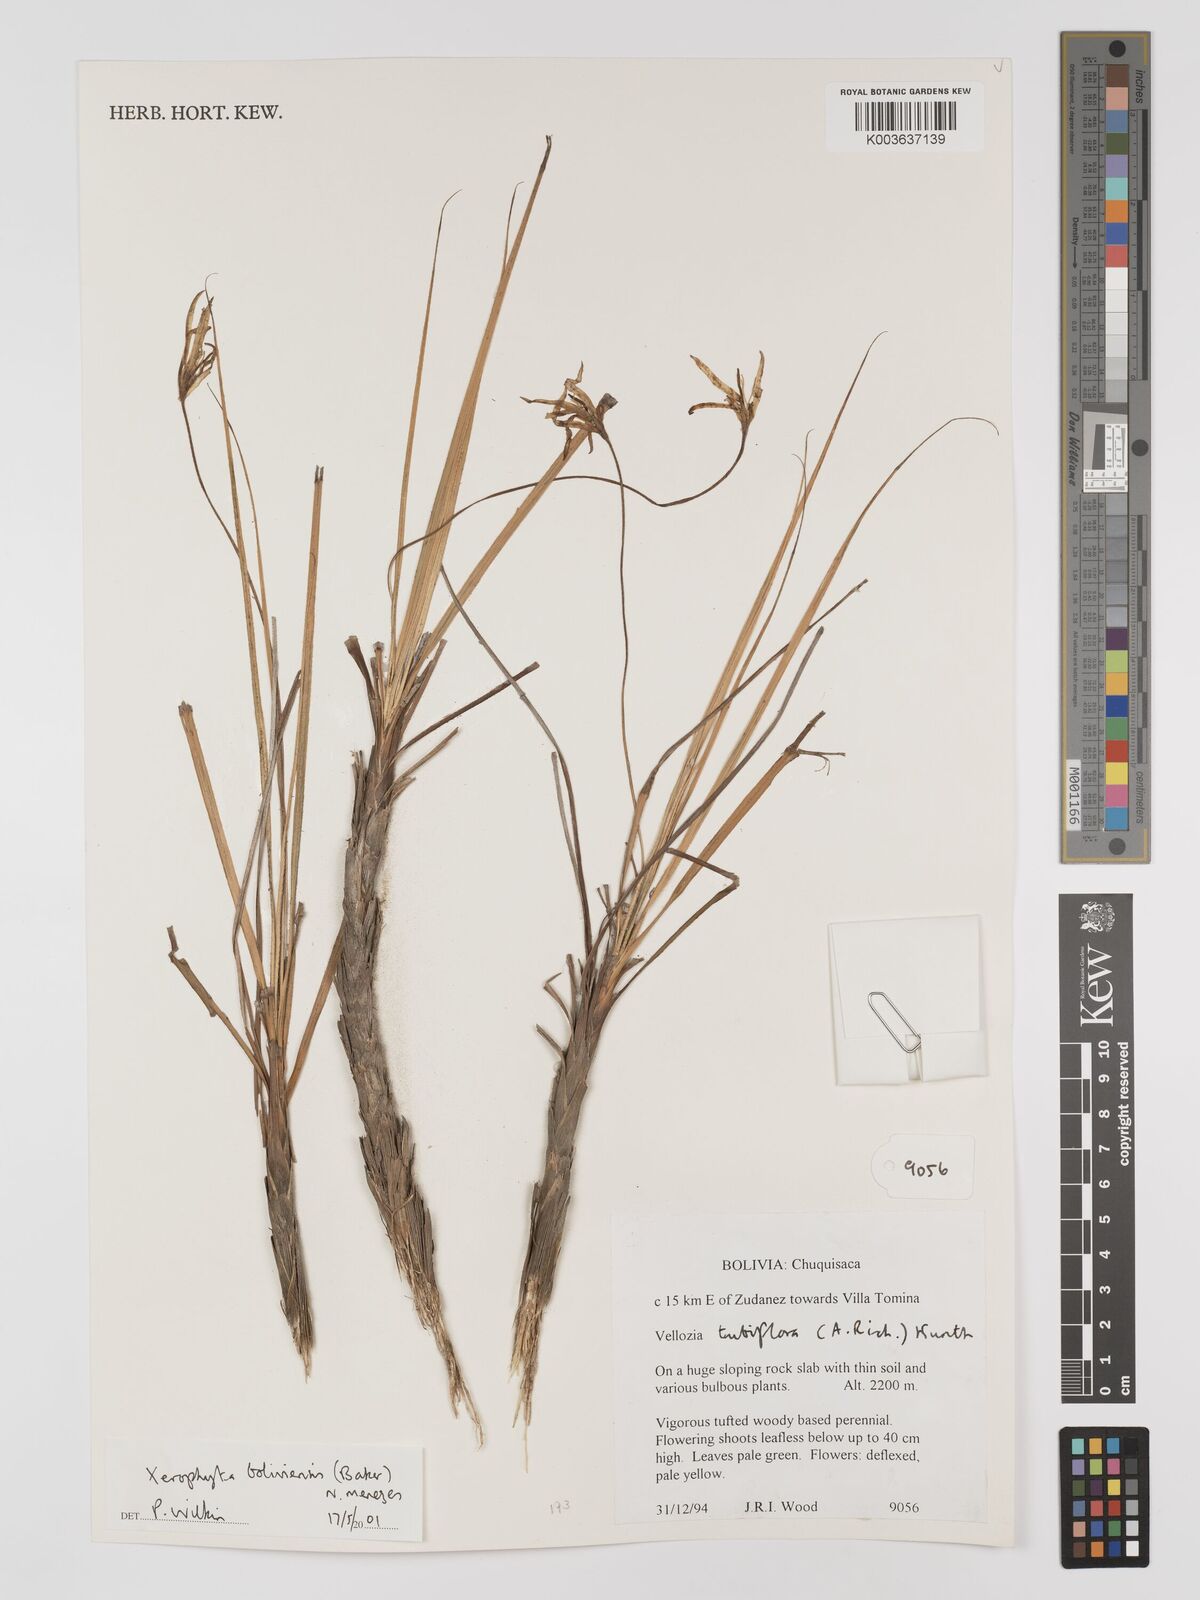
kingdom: Plantae
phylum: Tracheophyta
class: Liliopsida
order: Pandanales
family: Velloziaceae
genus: Barbaceniopsis
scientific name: Barbaceniopsis boliviensis
